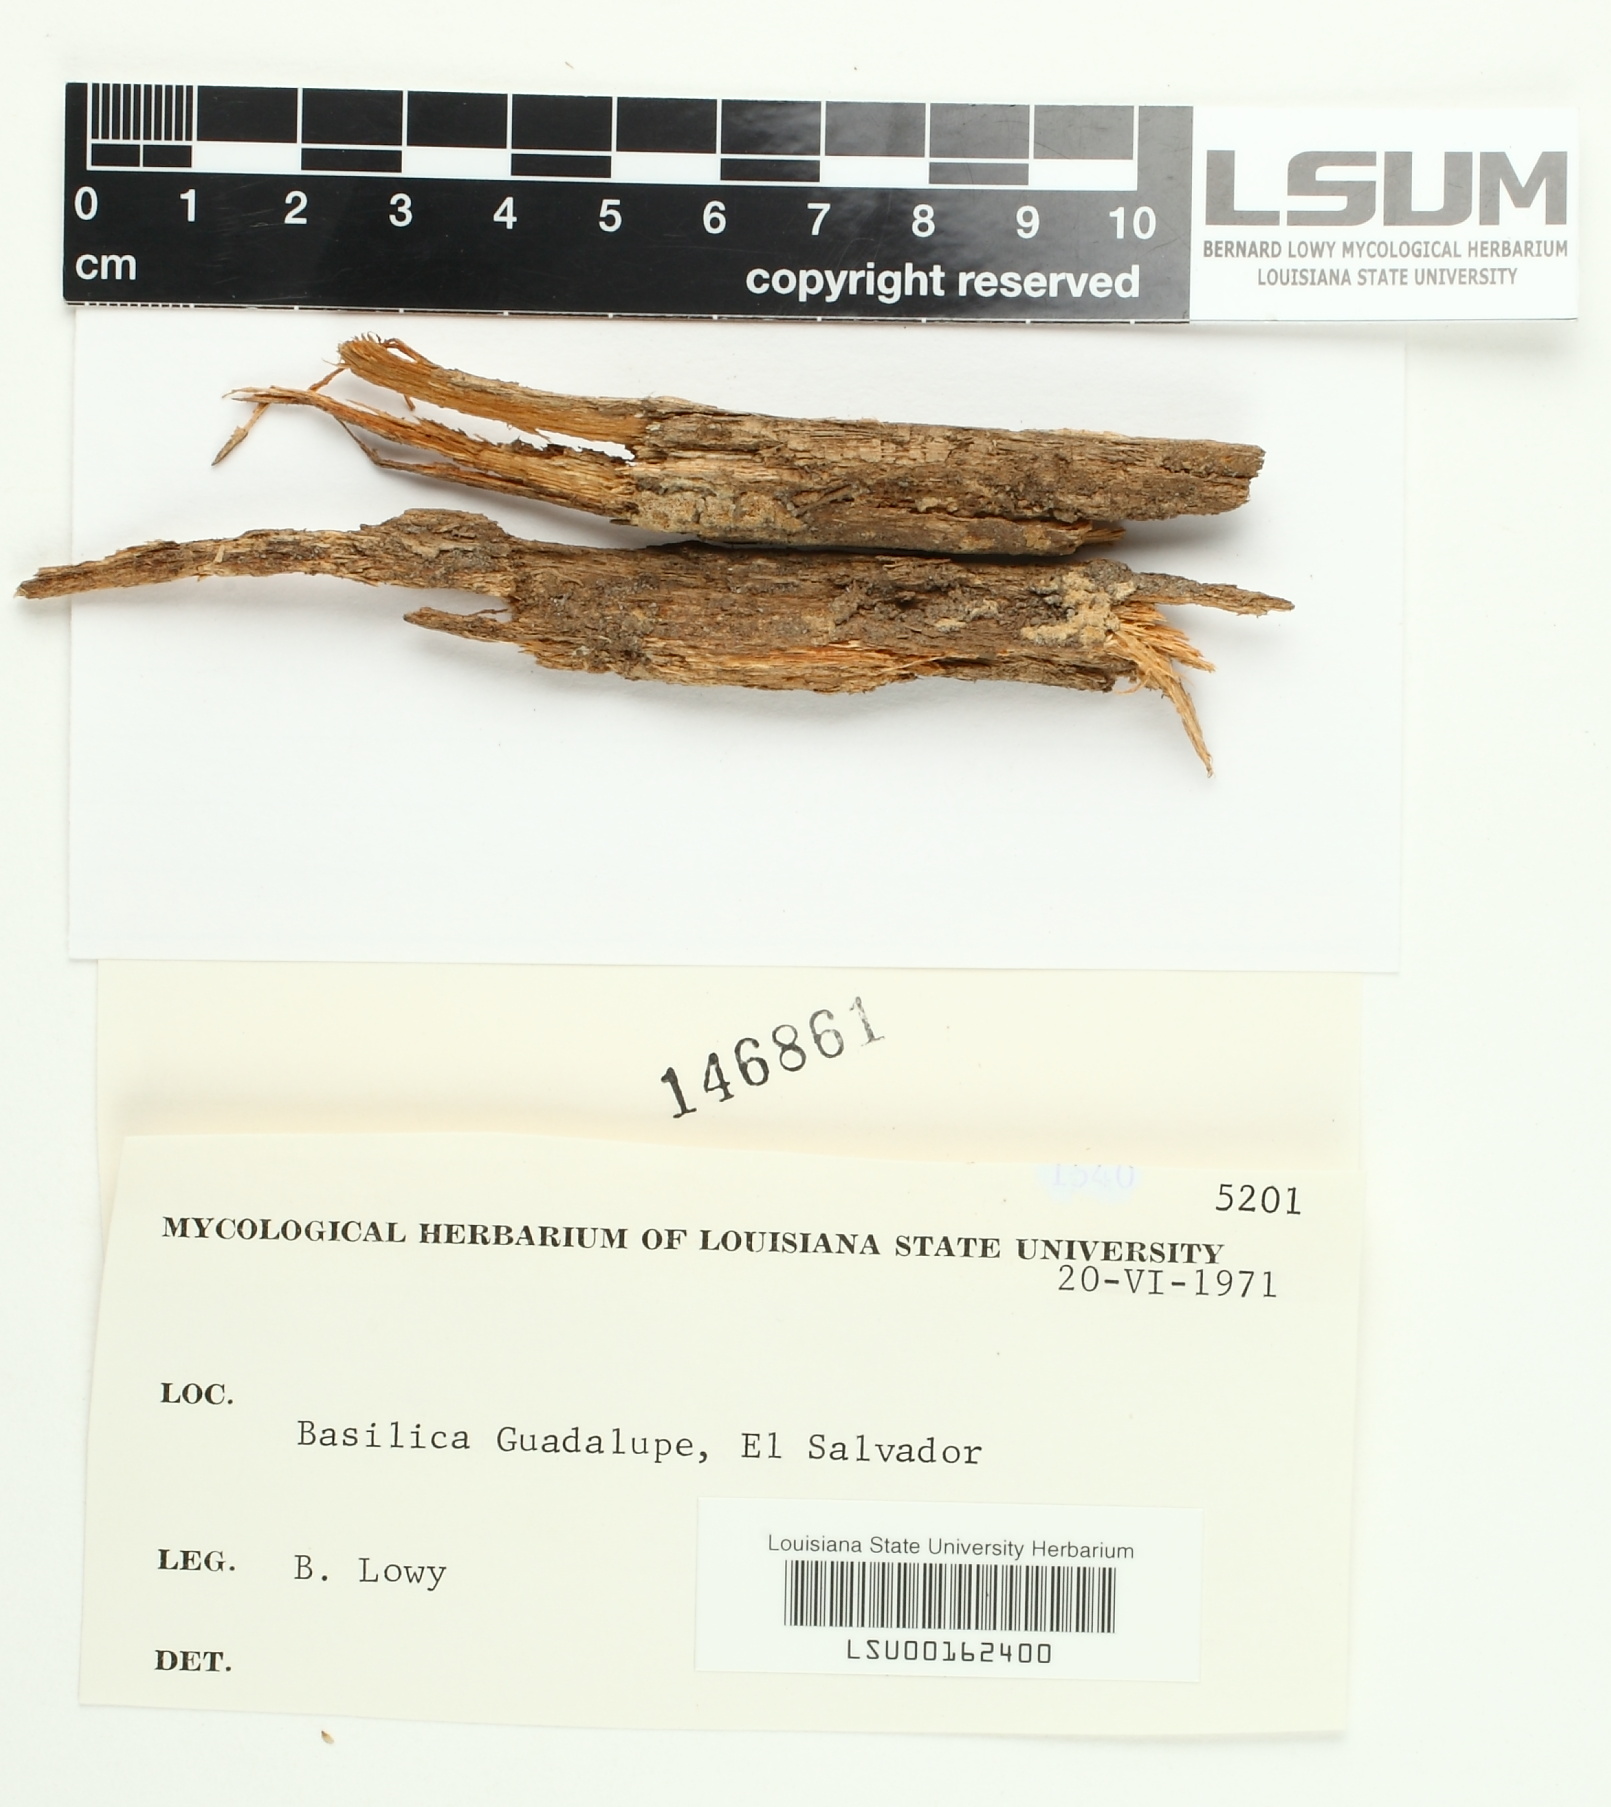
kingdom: Fungi
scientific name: Fungi
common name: Fungi
